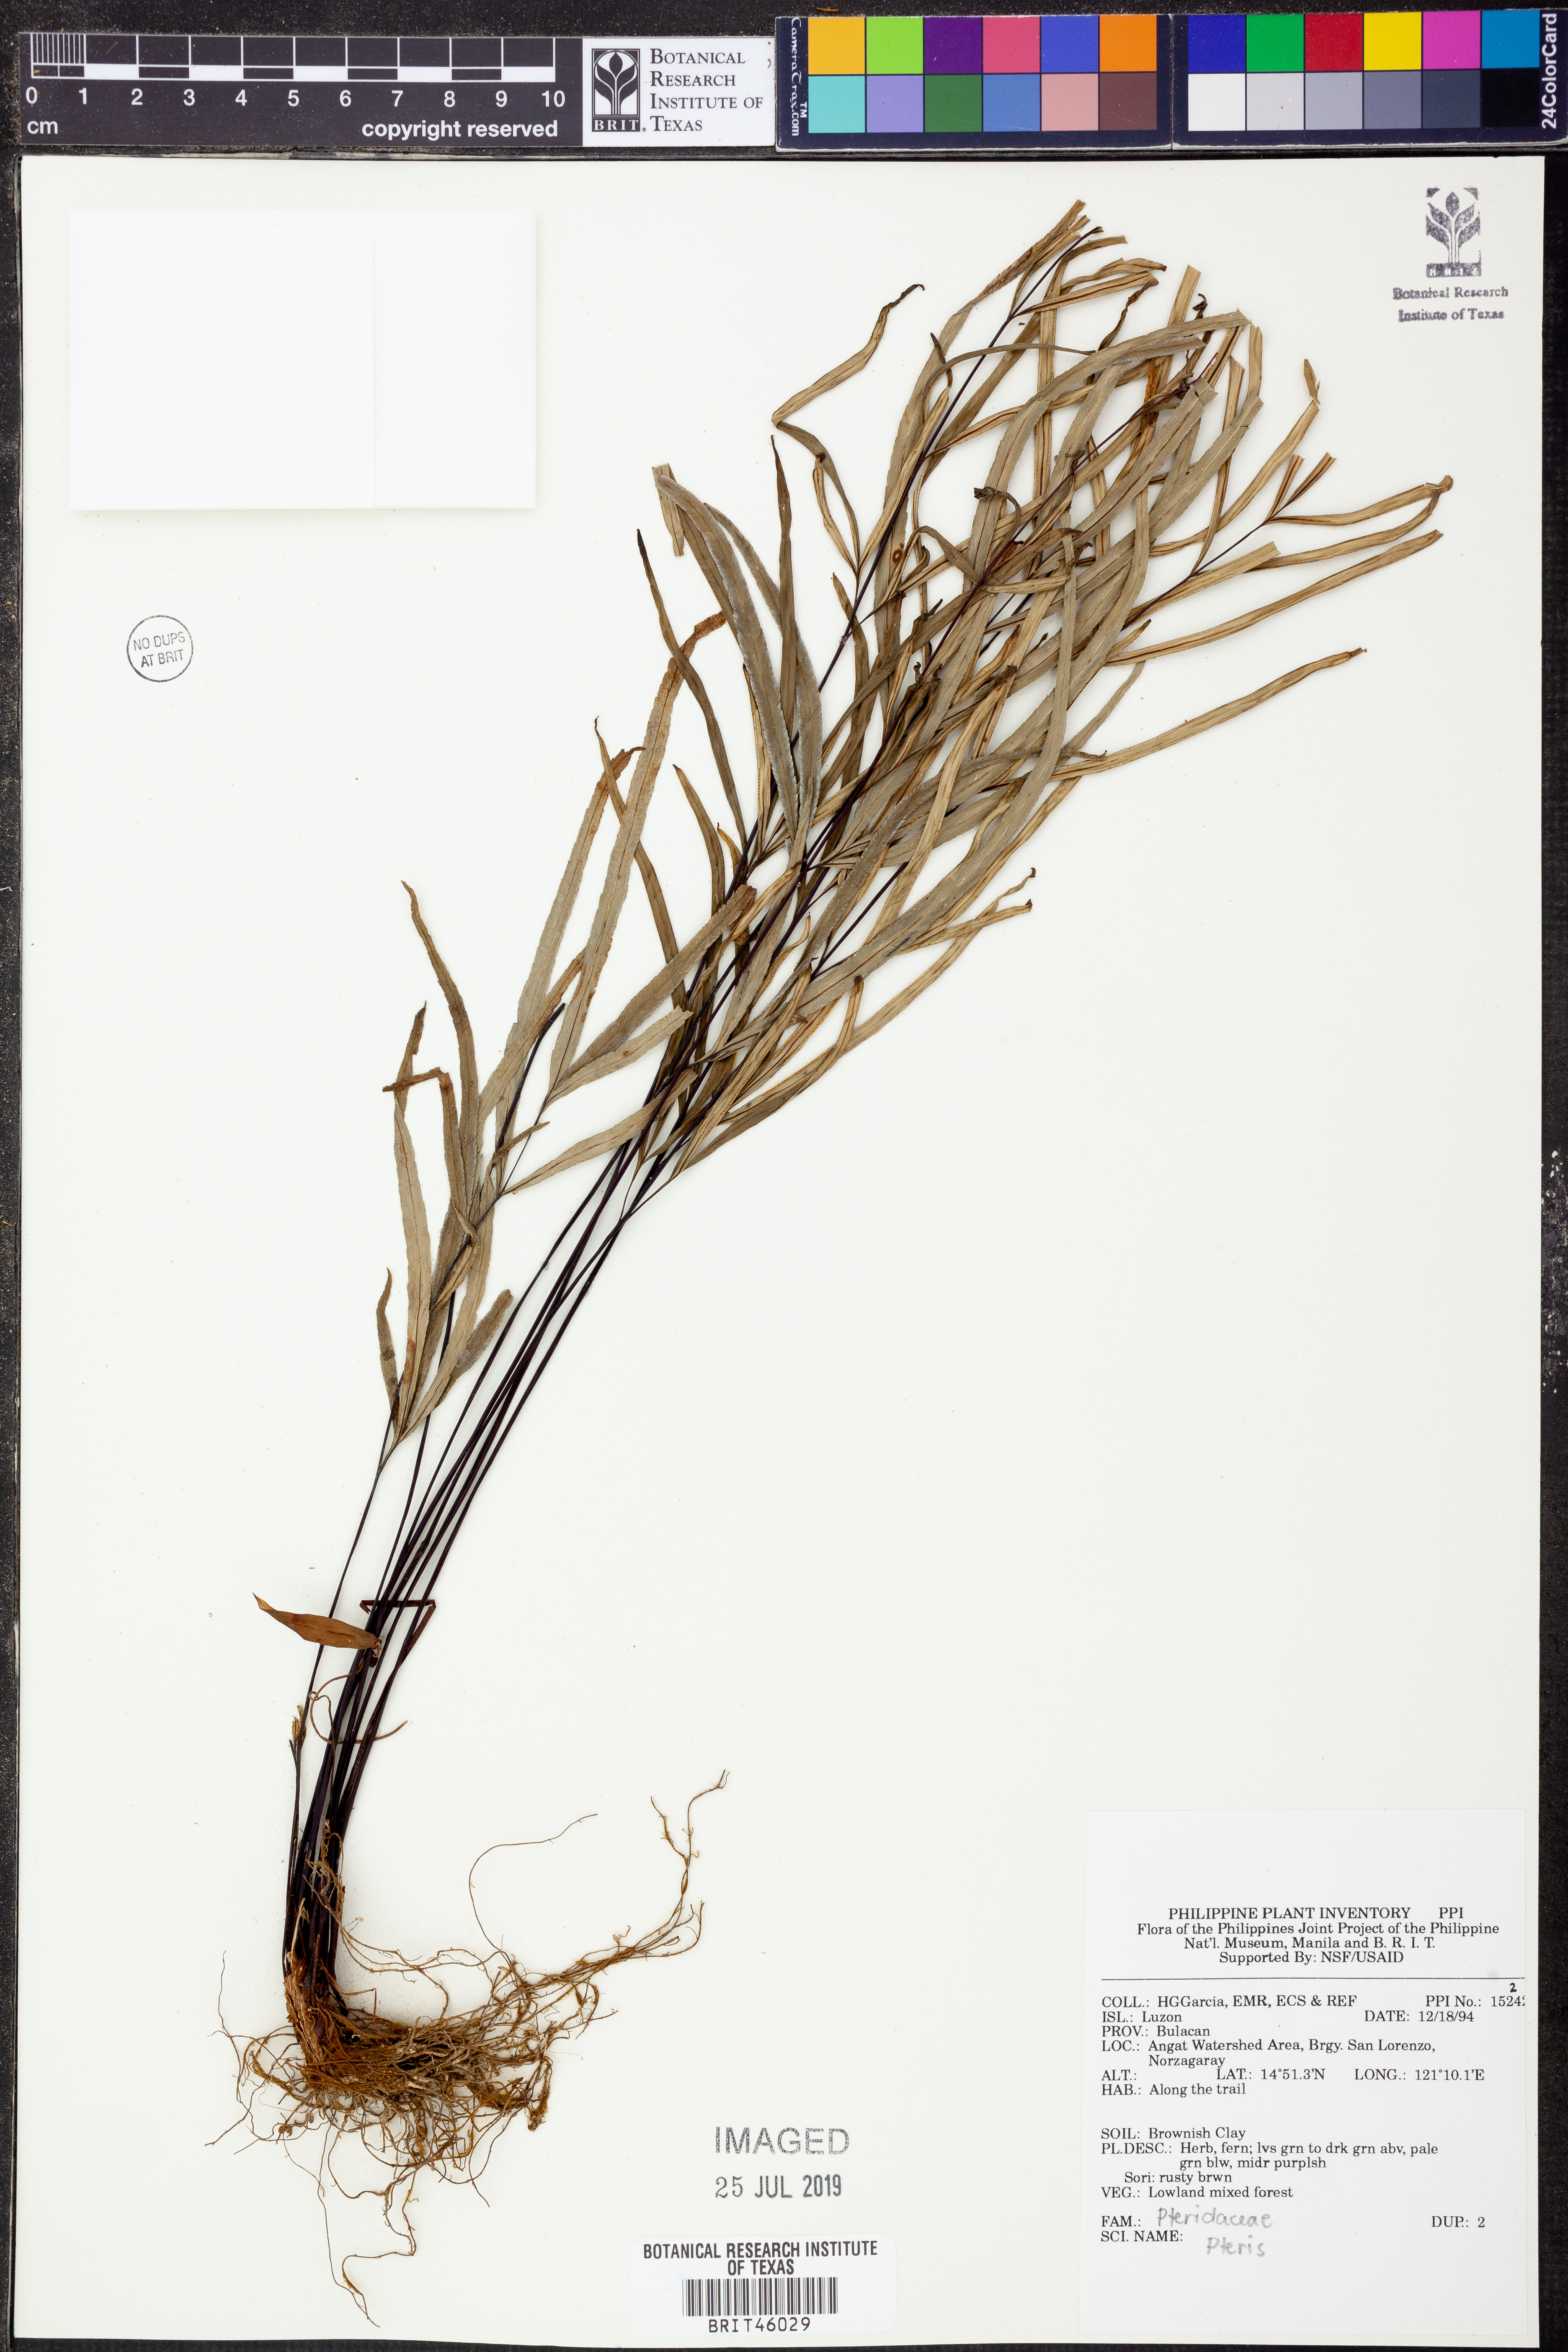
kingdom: Plantae
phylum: Tracheophyta
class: Polypodiopsida
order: Polypodiales
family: Pteridaceae
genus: Pteris
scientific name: Pteris
